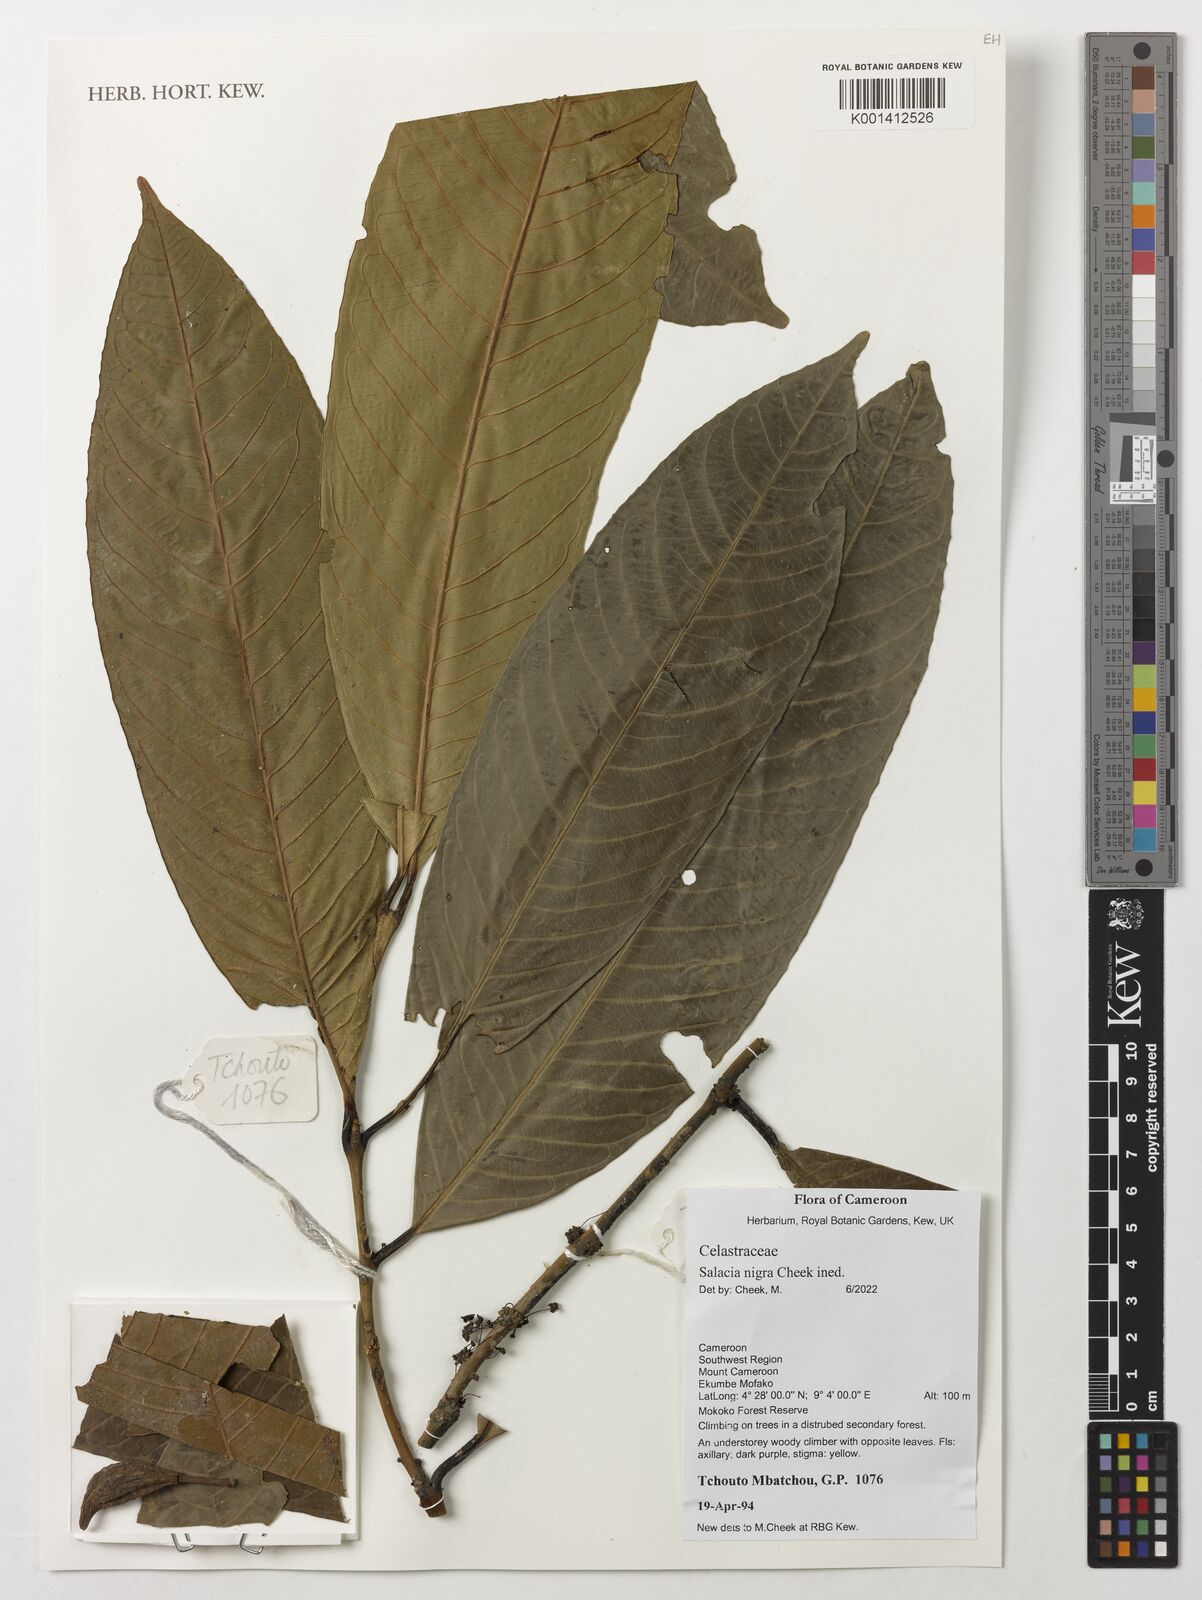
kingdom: Plantae
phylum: Tracheophyta
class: Magnoliopsida
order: Celastrales
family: Celastraceae
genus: Salacia
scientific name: Salacia nigra
